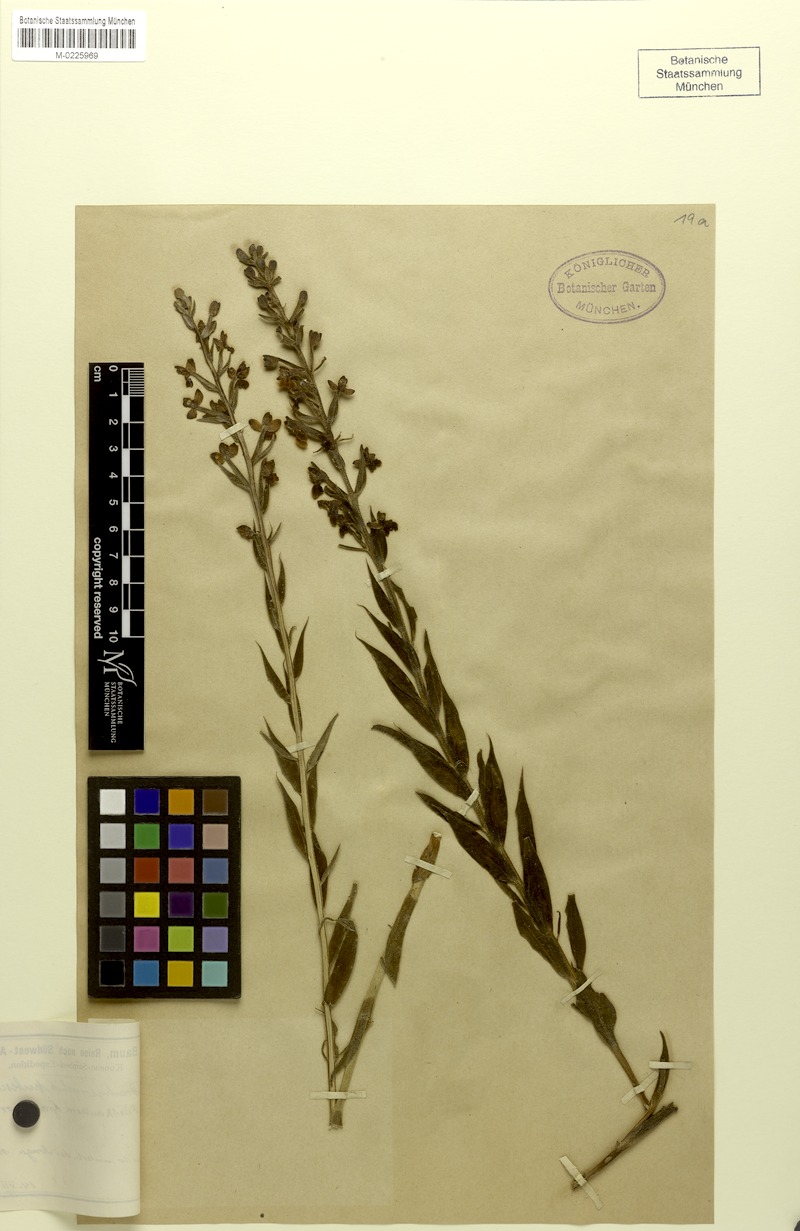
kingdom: Plantae
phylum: Tracheophyta
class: Liliopsida
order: Asparagales
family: Orchidaceae
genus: Brachycorythis
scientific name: Brachycorythis pubescens
